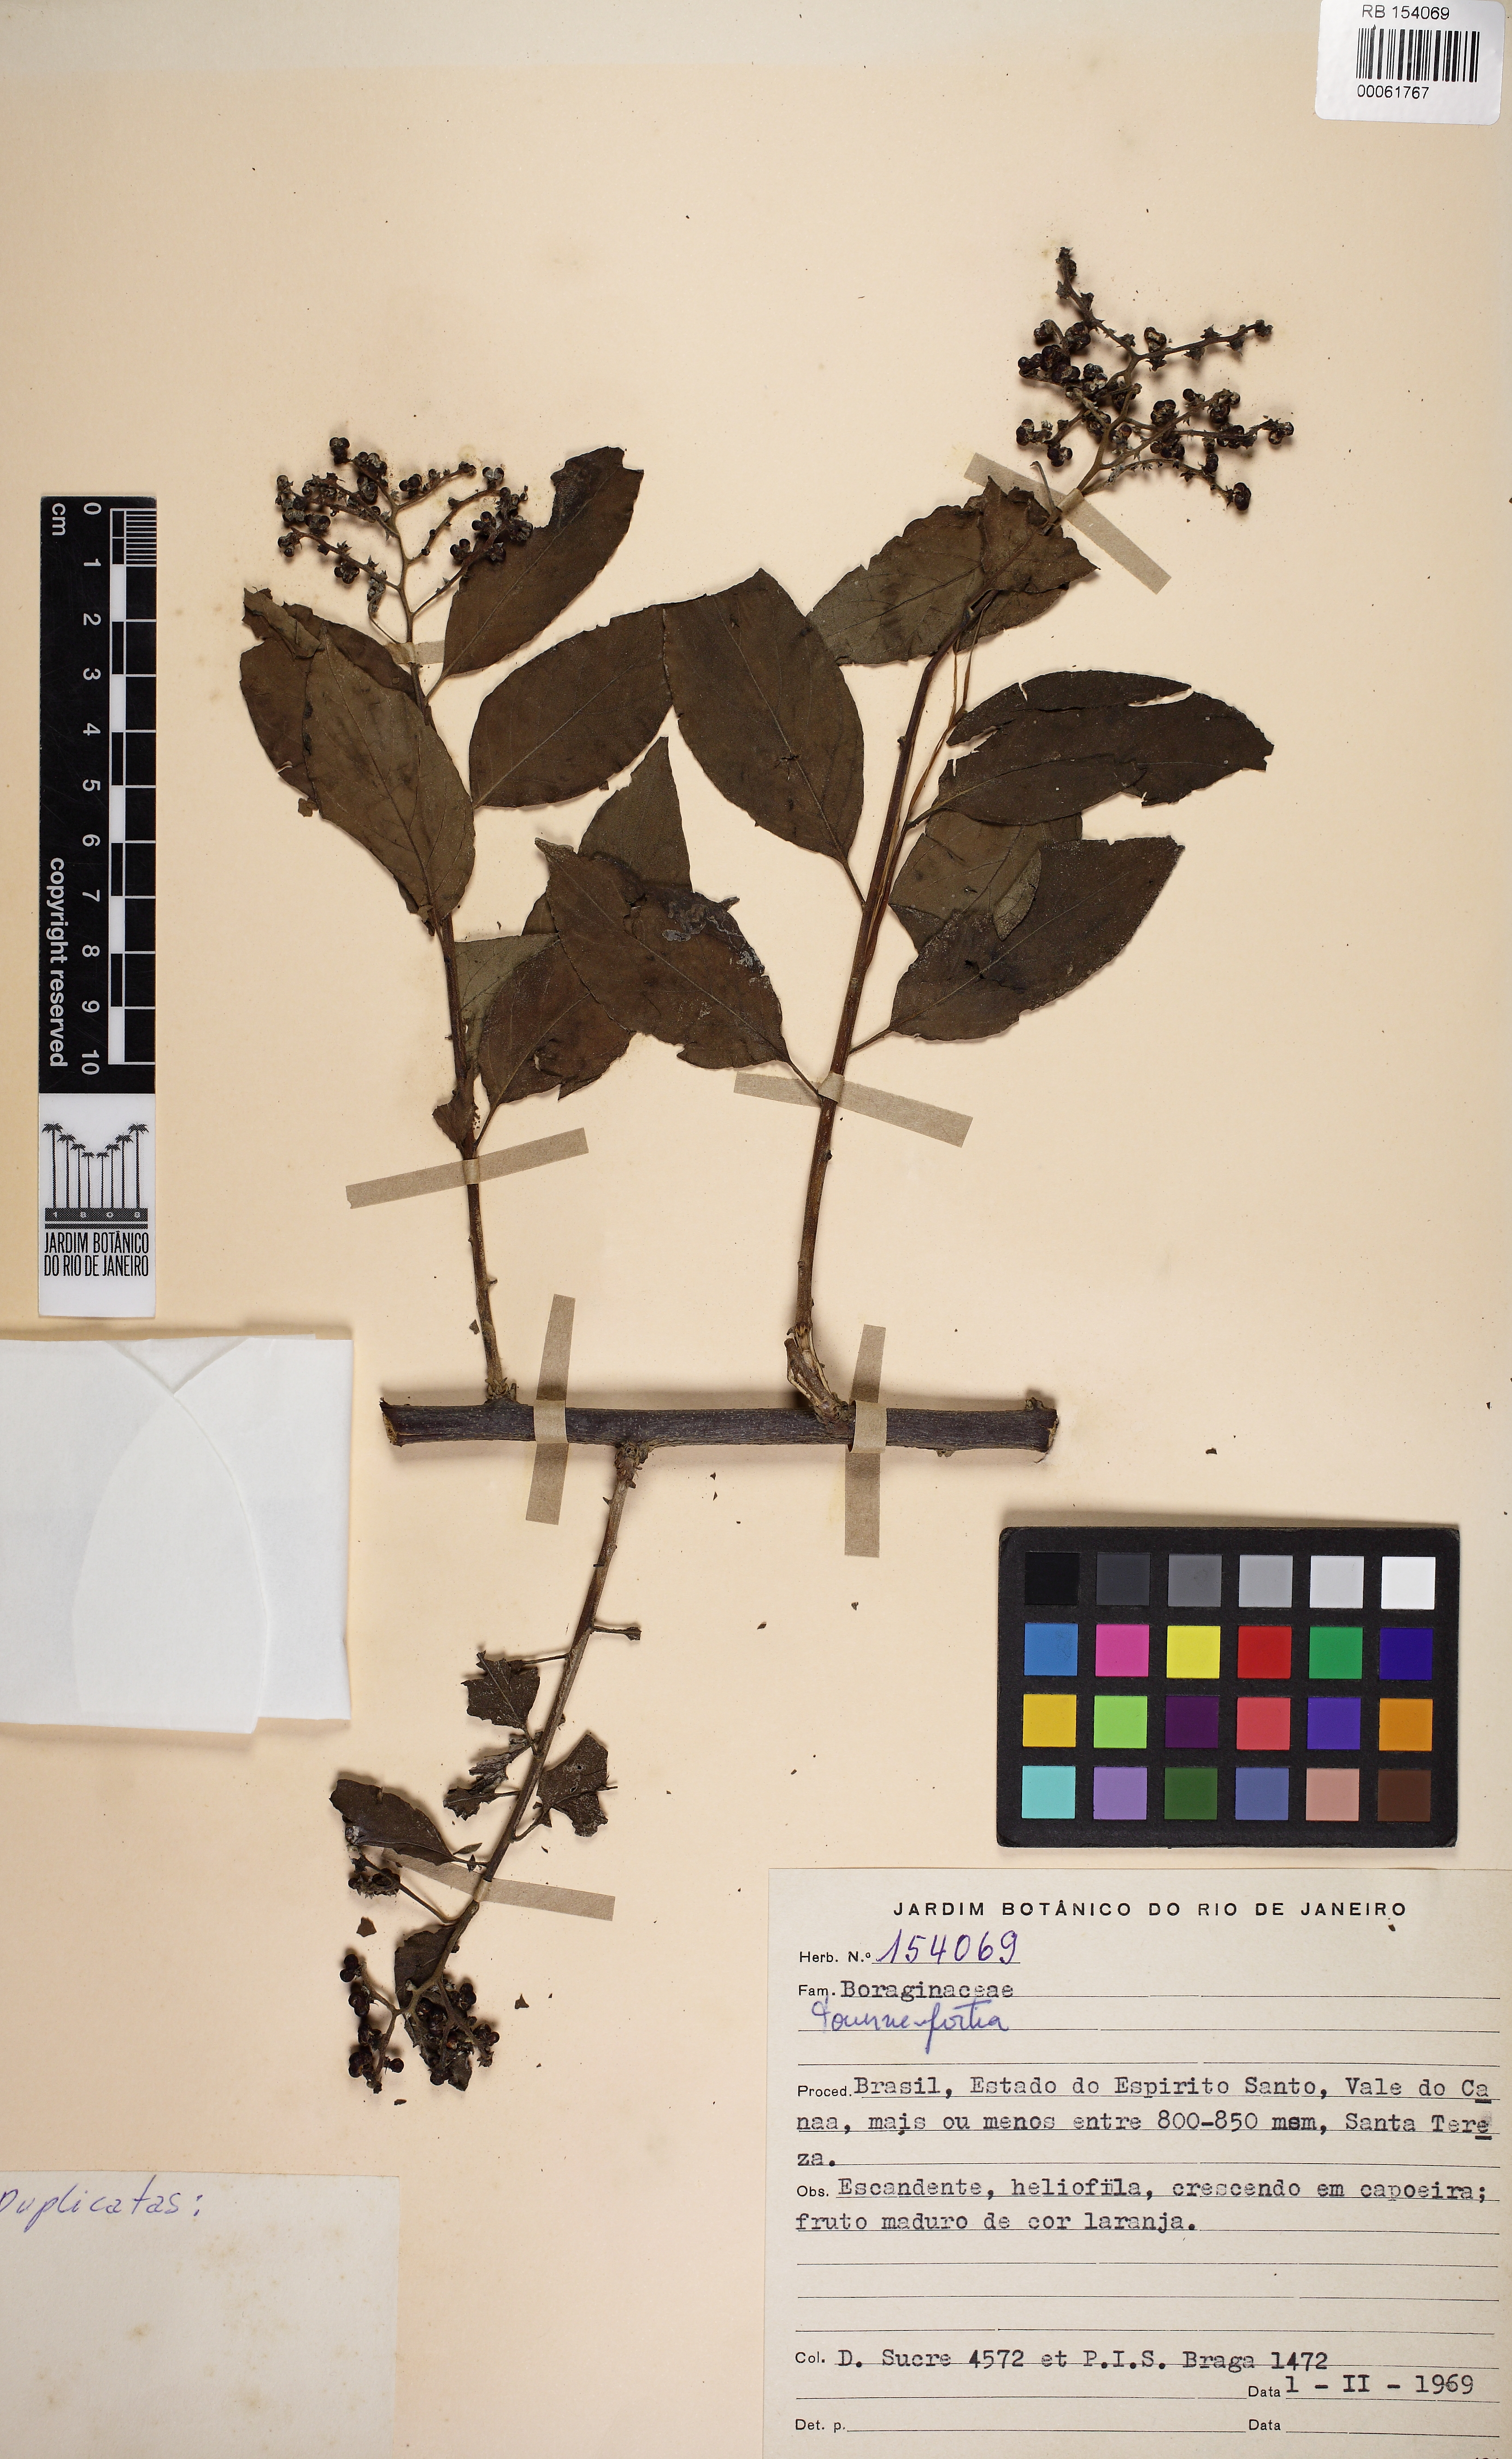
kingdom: Plantae
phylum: Tracheophyta
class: Magnoliopsida
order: Boraginales
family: Heliotropiaceae
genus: Myriopus
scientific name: Myriopus paniculatus
